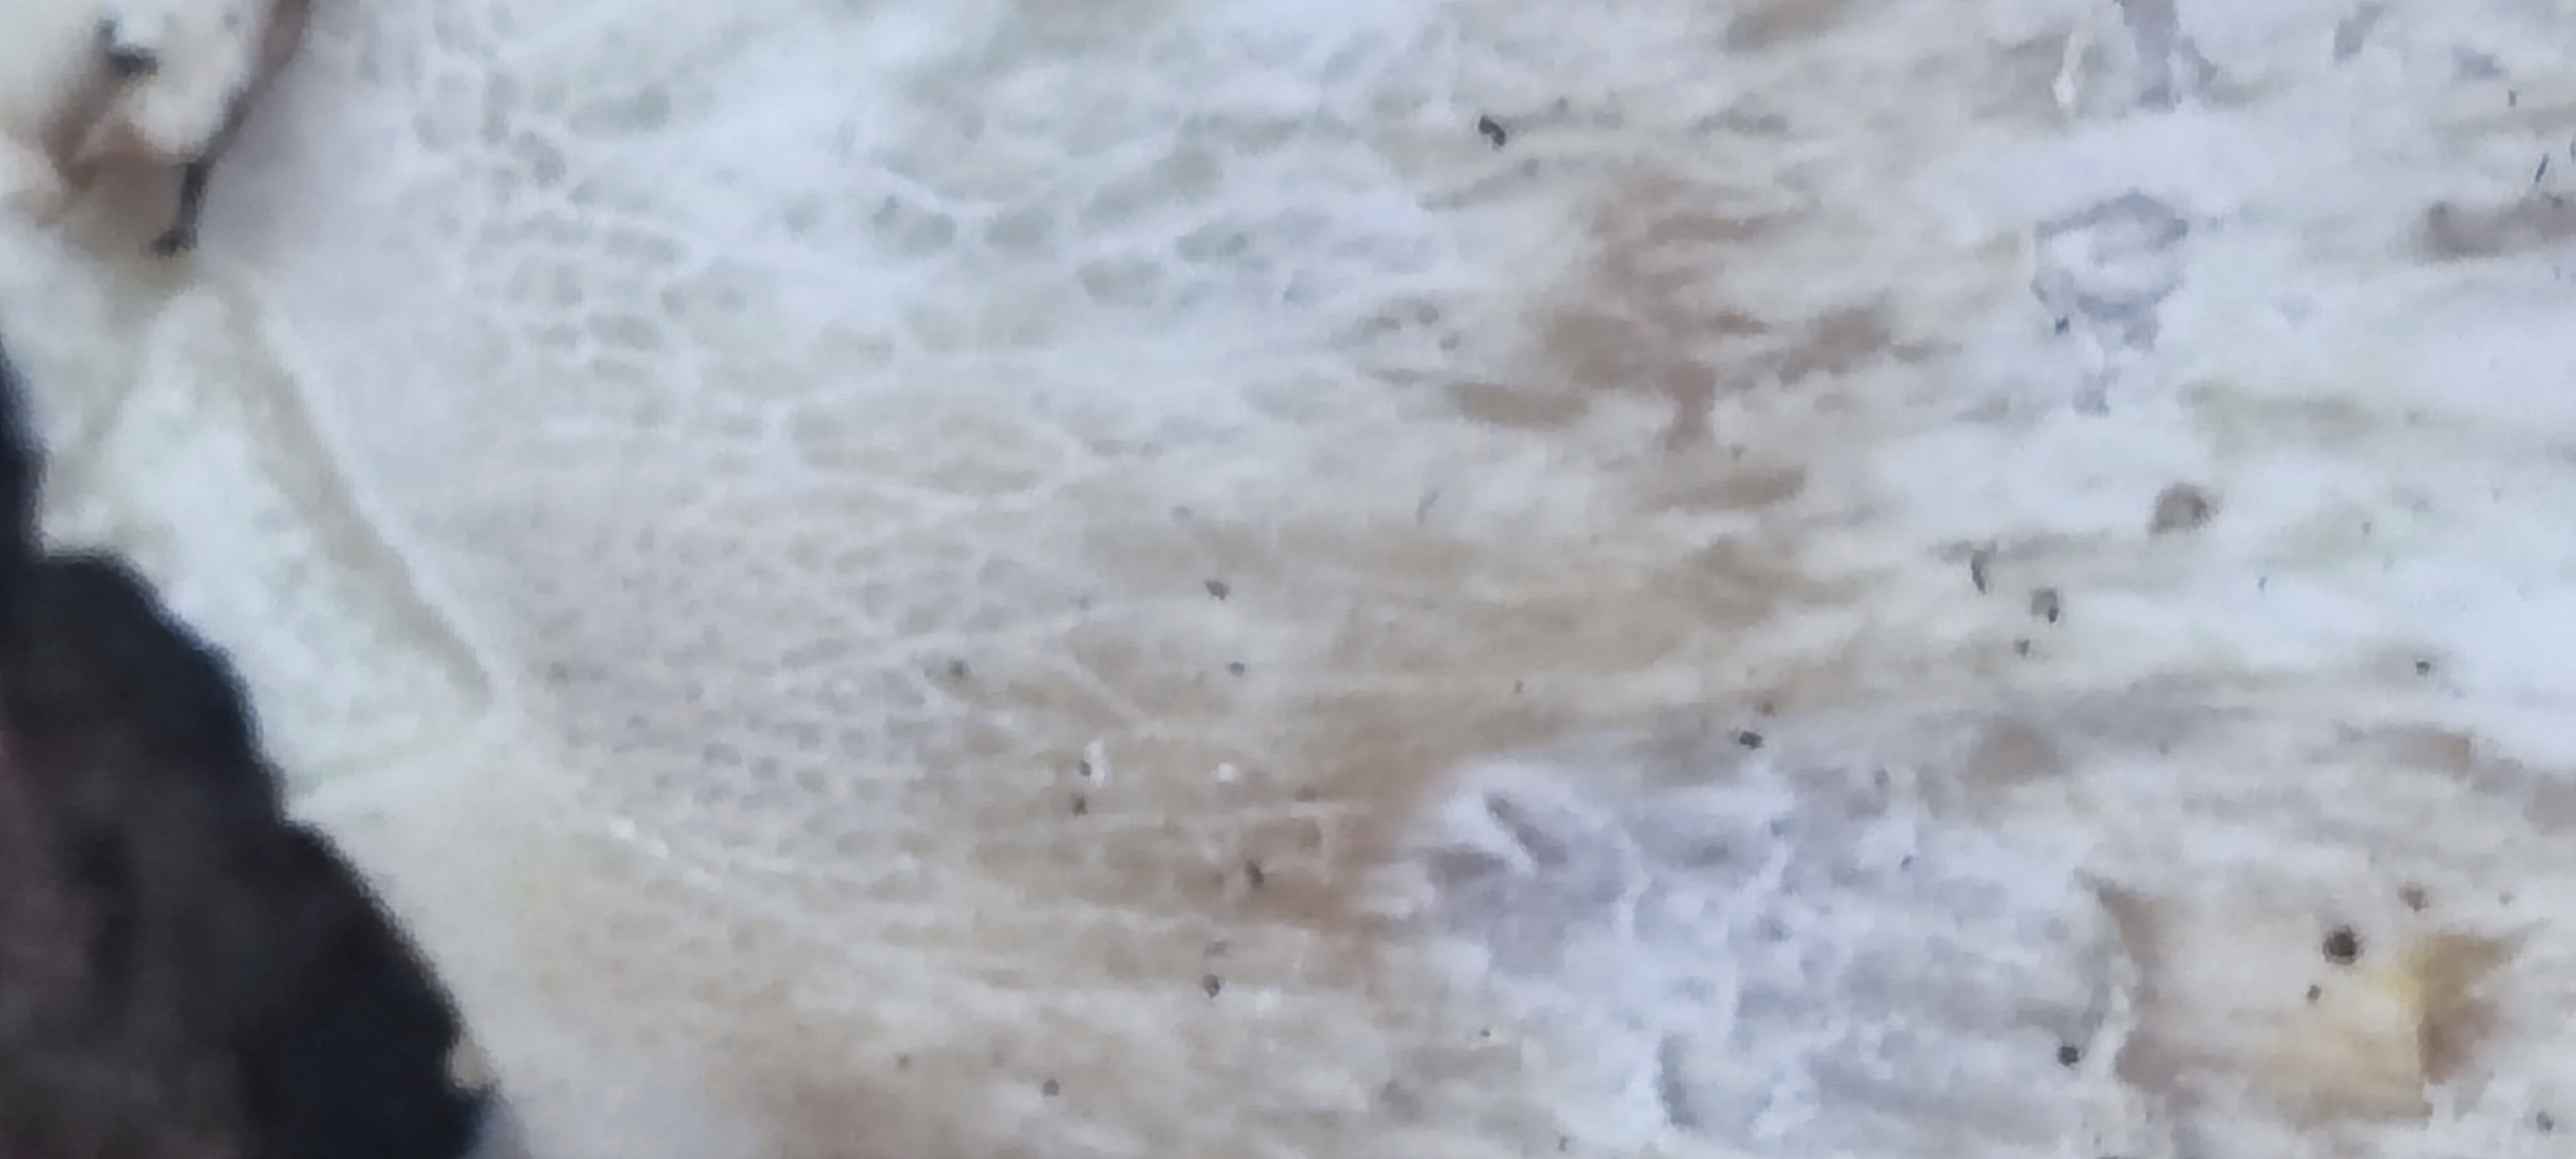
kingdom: Fungi
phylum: Basidiomycota
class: Agaricomycetes
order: Boletales
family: Boletaceae
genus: Boletus
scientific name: Boletus edulis
